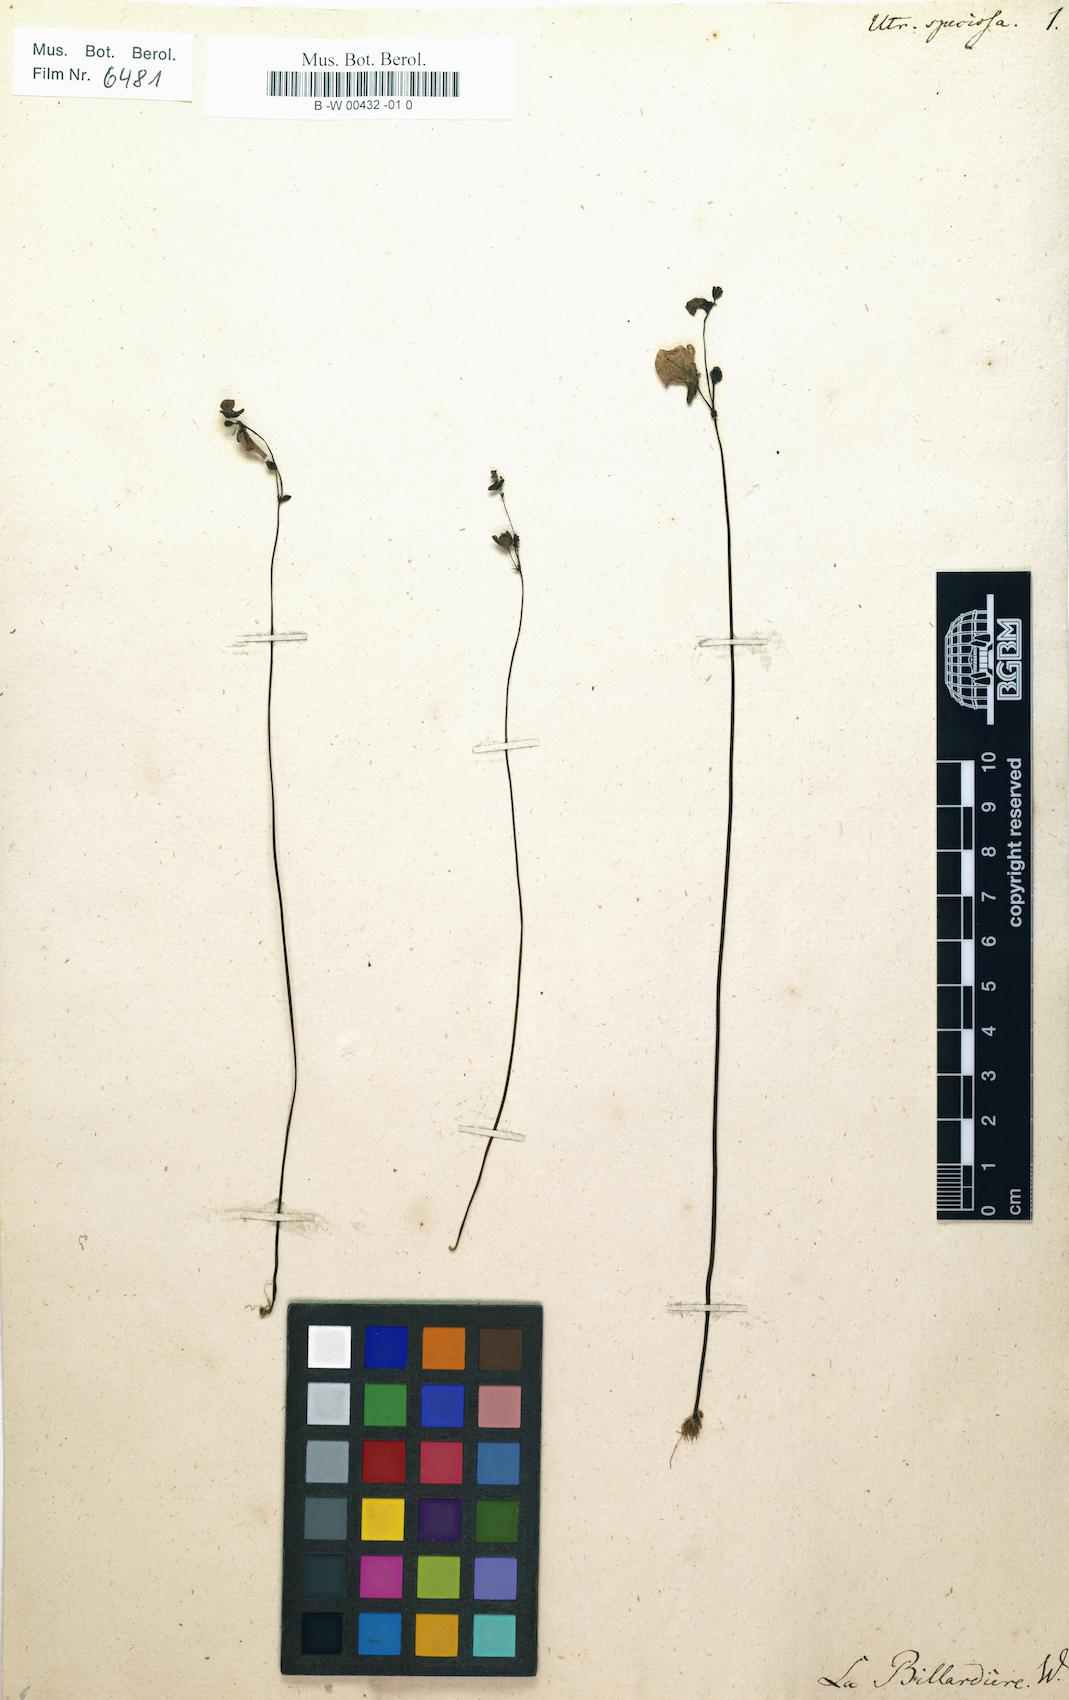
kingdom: Plantae
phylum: Tracheophyta
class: Magnoliopsida
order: Lamiales
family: Lentibulariaceae
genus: Utricularia
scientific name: Utricularia dichotoma
